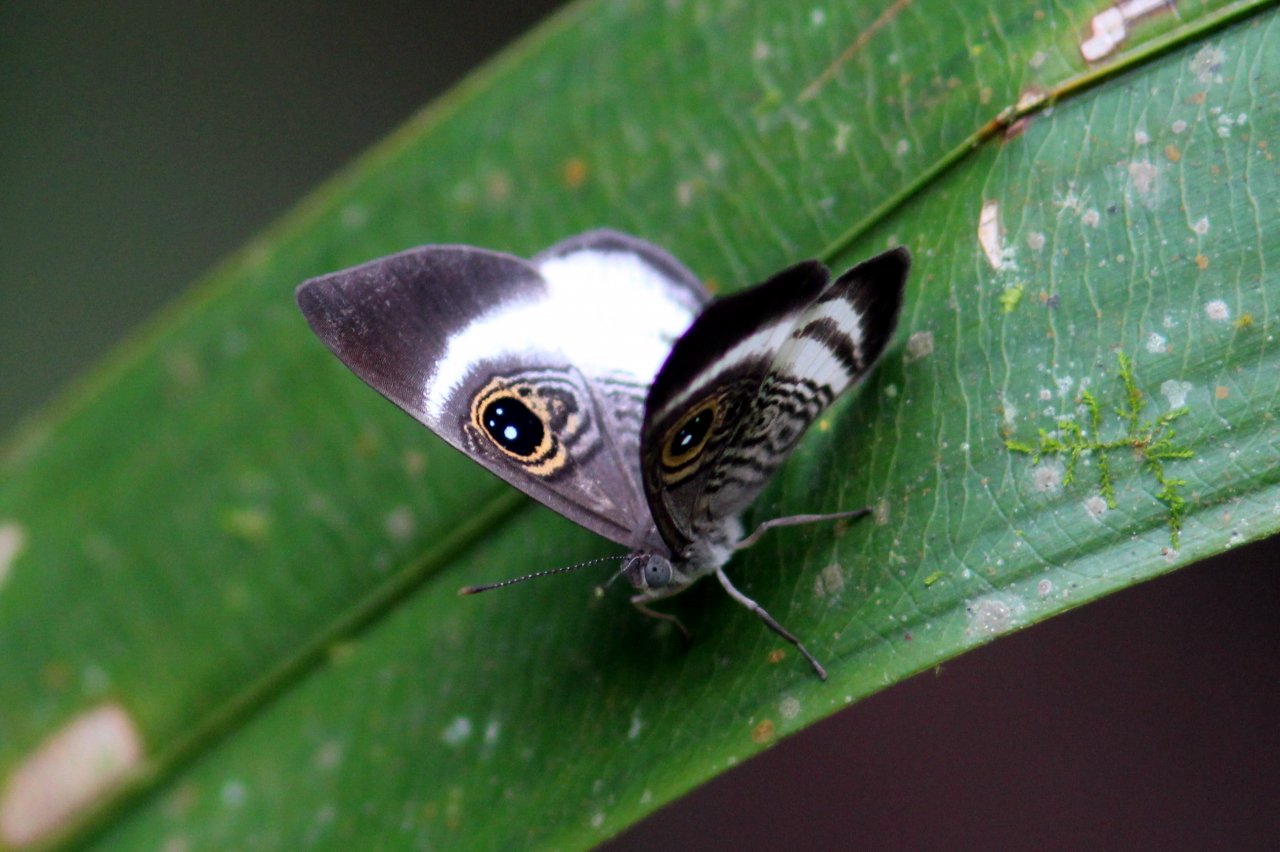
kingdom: Animalia
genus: Mesosemia
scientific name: Mesosemia zonalis
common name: Whitened Eyed-Metalmark
